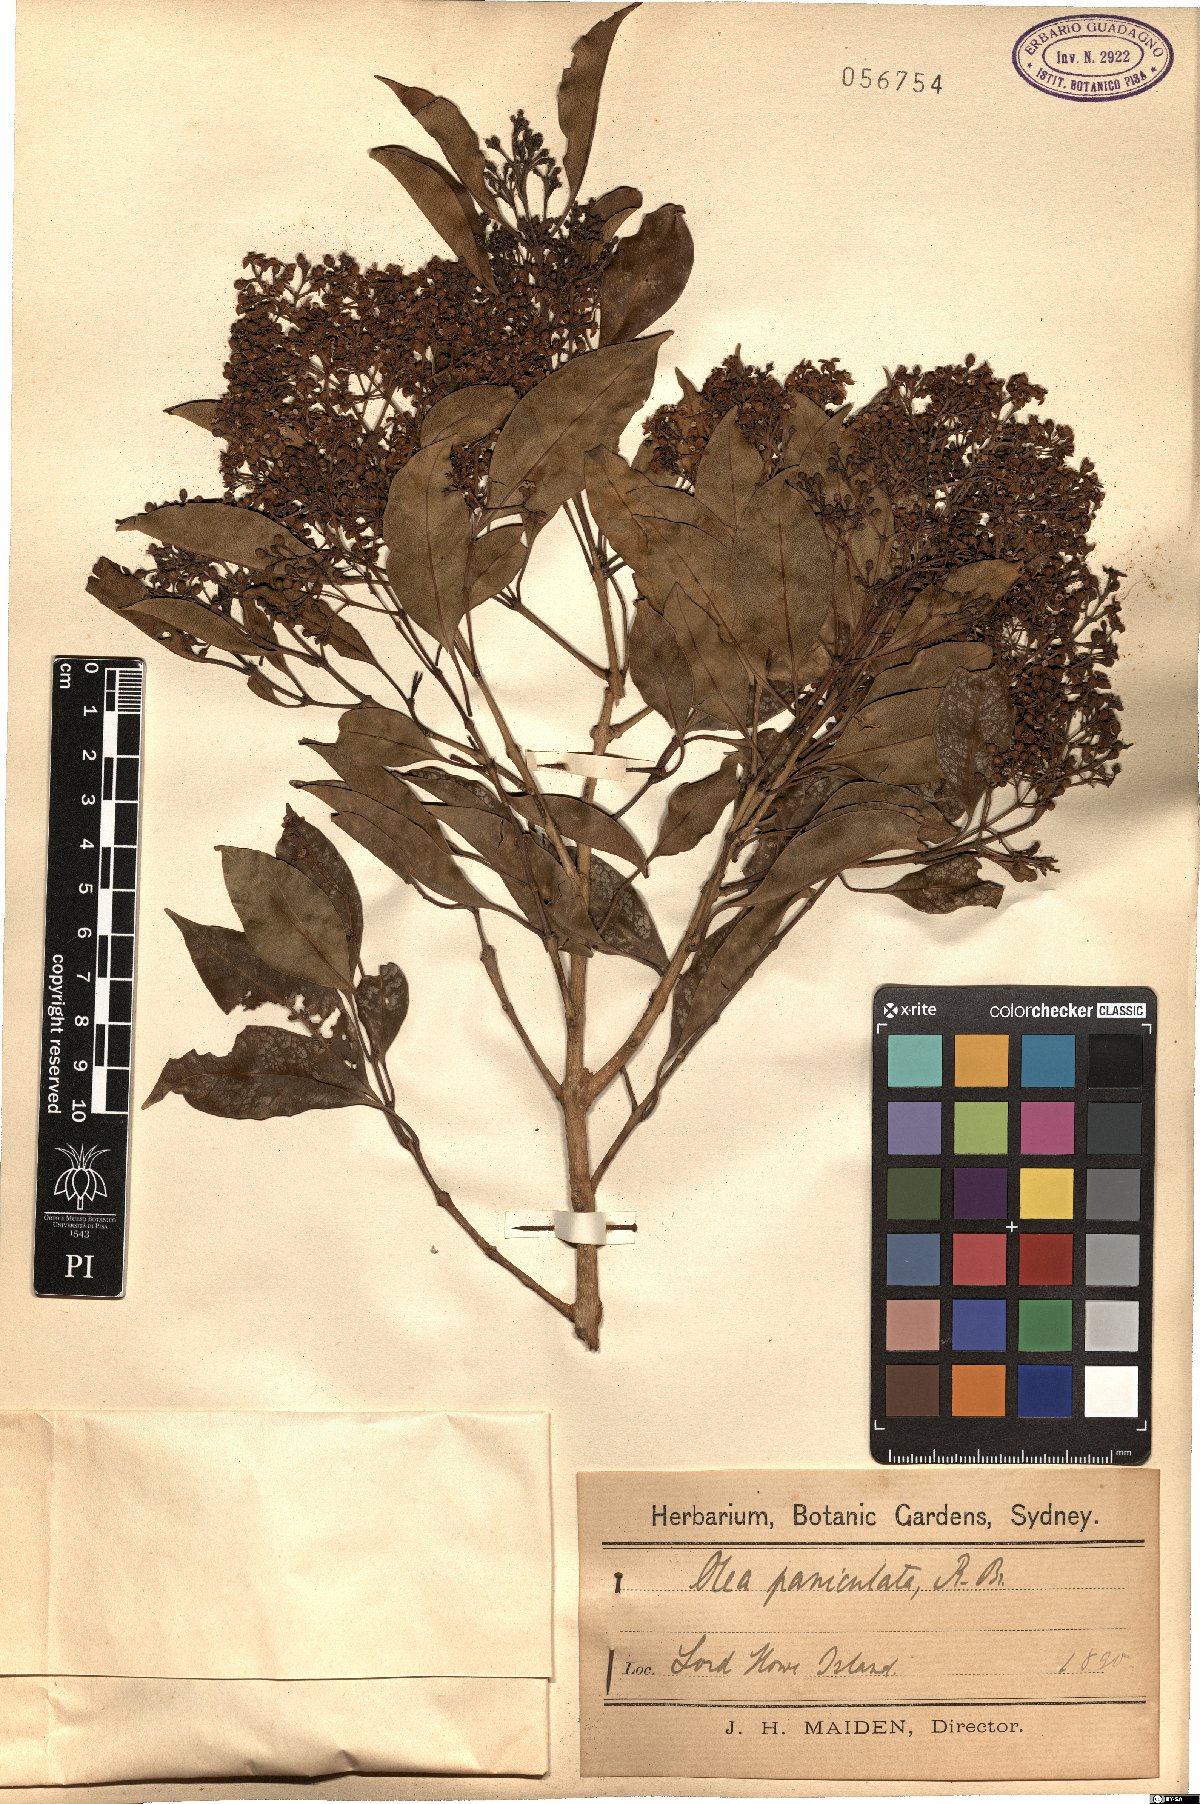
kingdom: Plantae
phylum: Tracheophyta
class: Magnoliopsida
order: Lamiales
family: Oleaceae
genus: Olea
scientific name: Olea paniculata
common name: Australian olive
